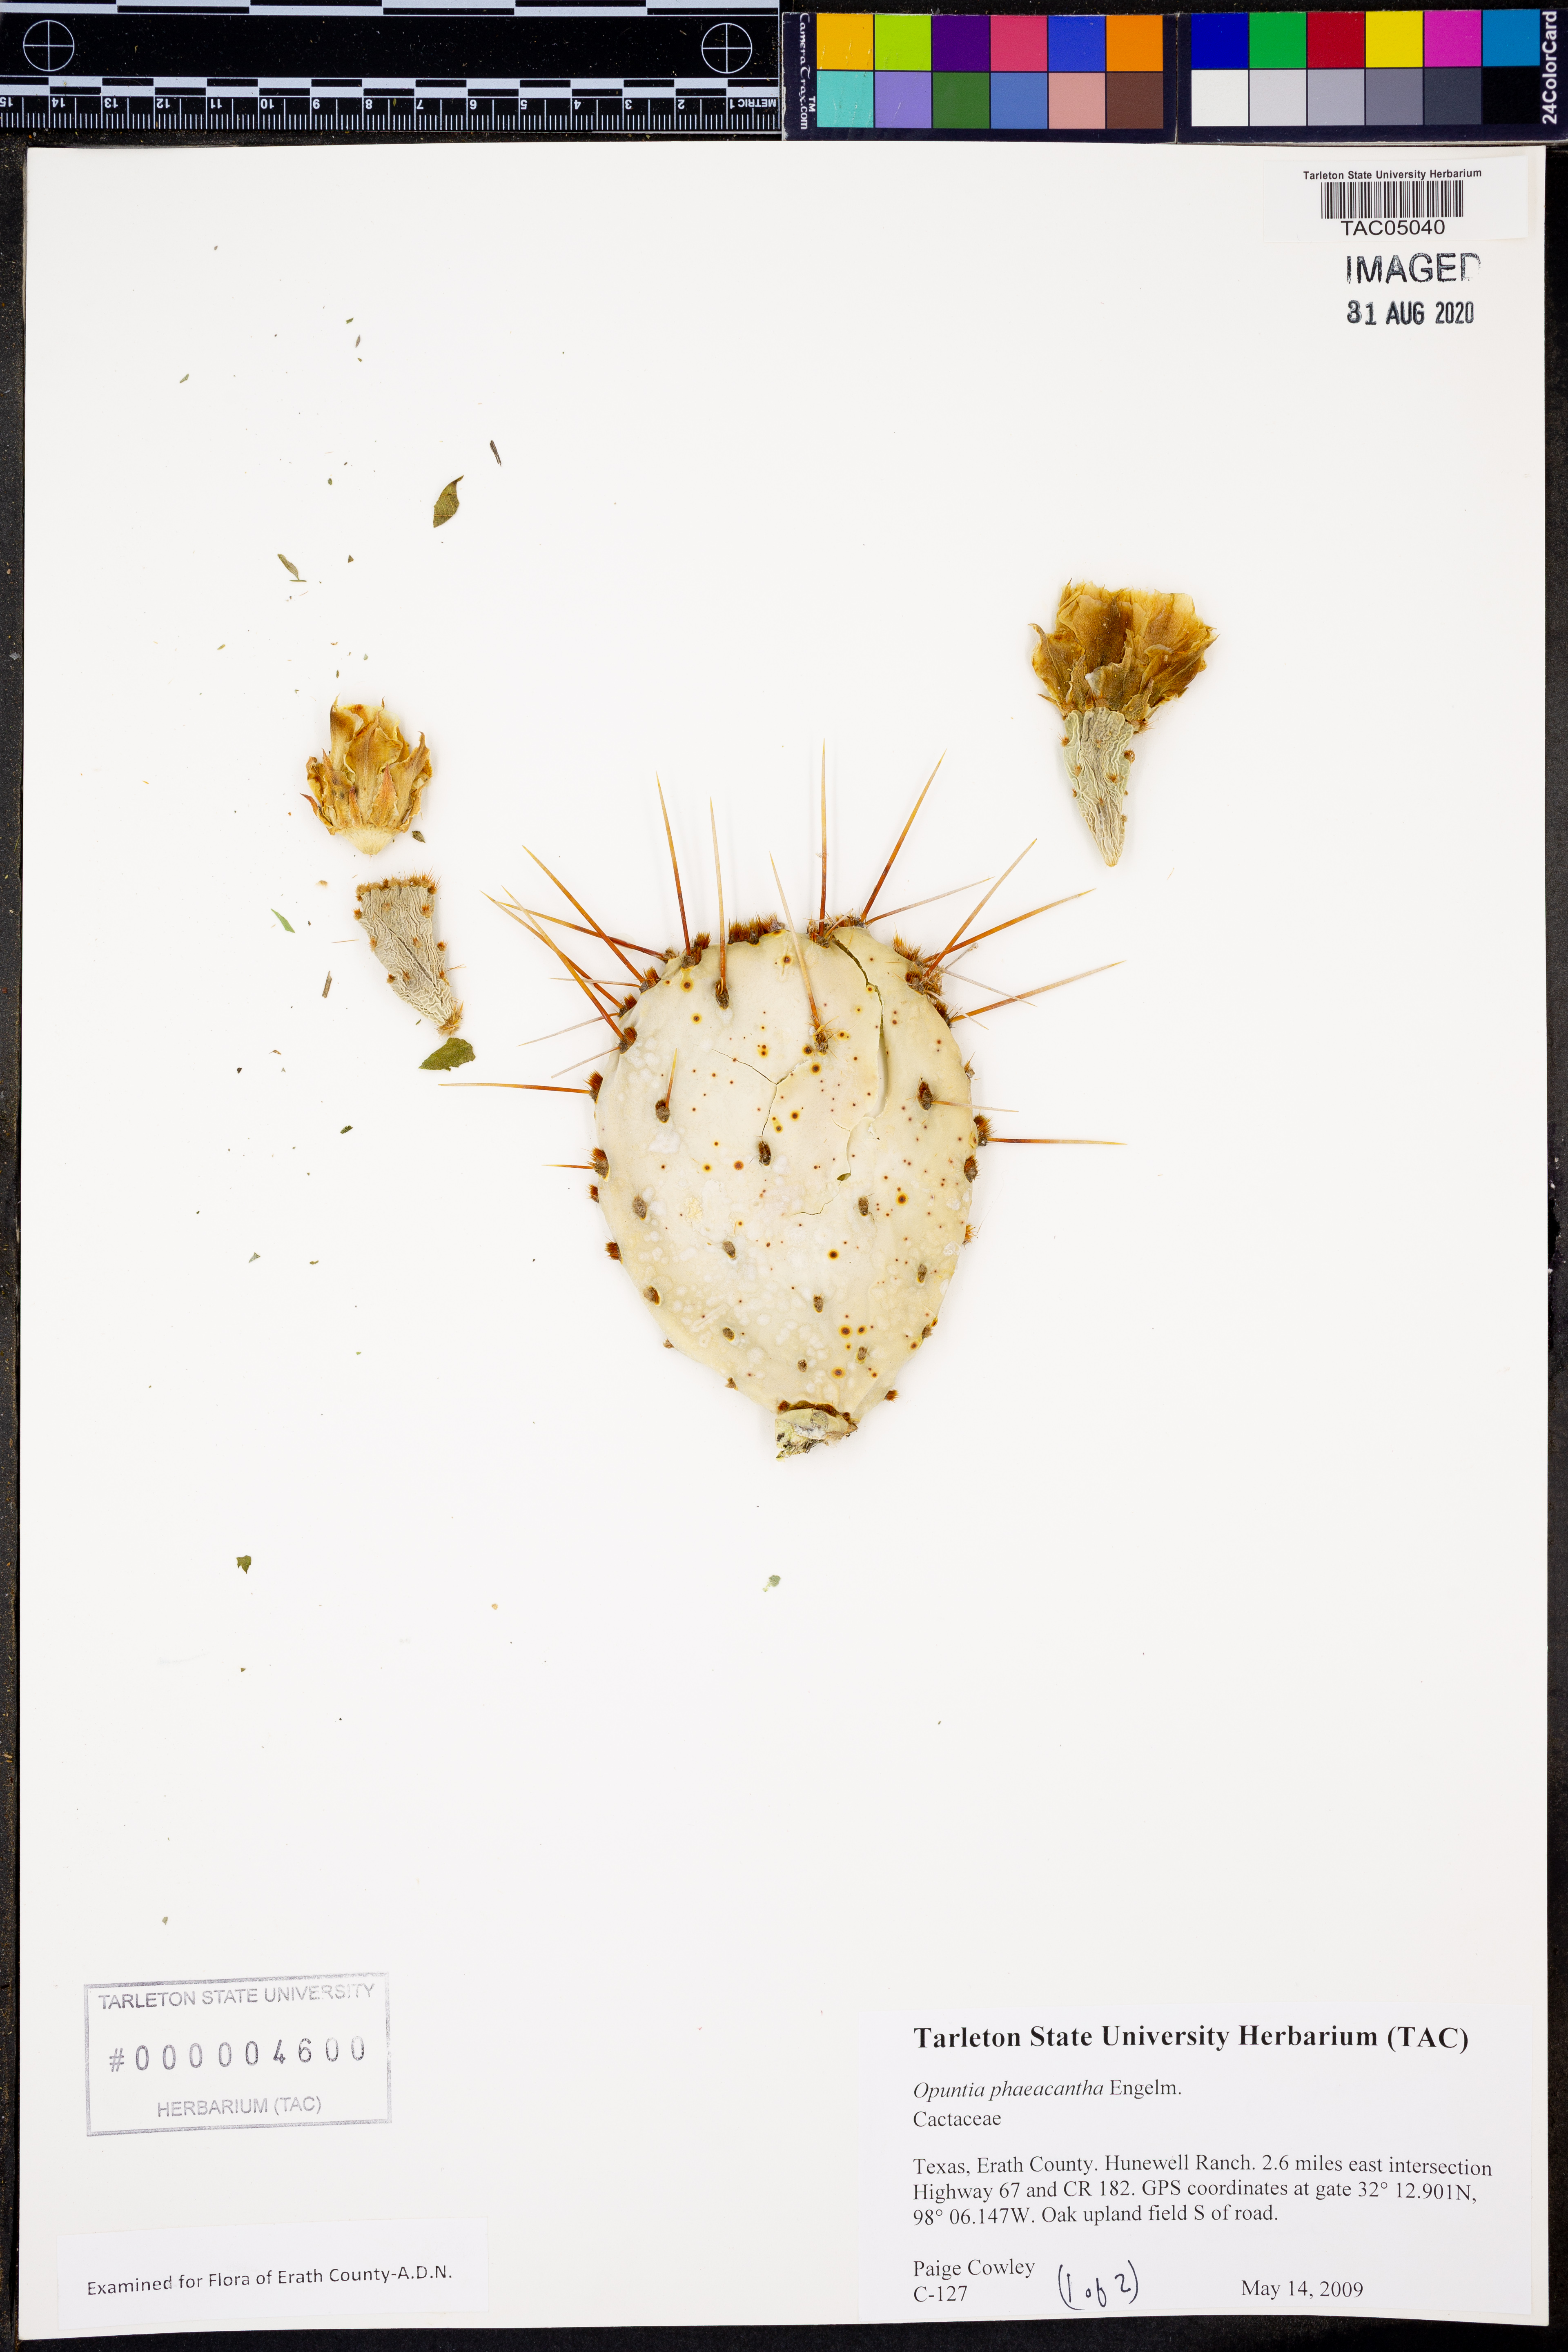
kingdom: Plantae
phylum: Tracheophyta
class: Magnoliopsida
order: Caryophyllales
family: Cactaceae
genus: Opuntia
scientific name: Opuntia phaeacantha
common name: New mexico prickly-pear
